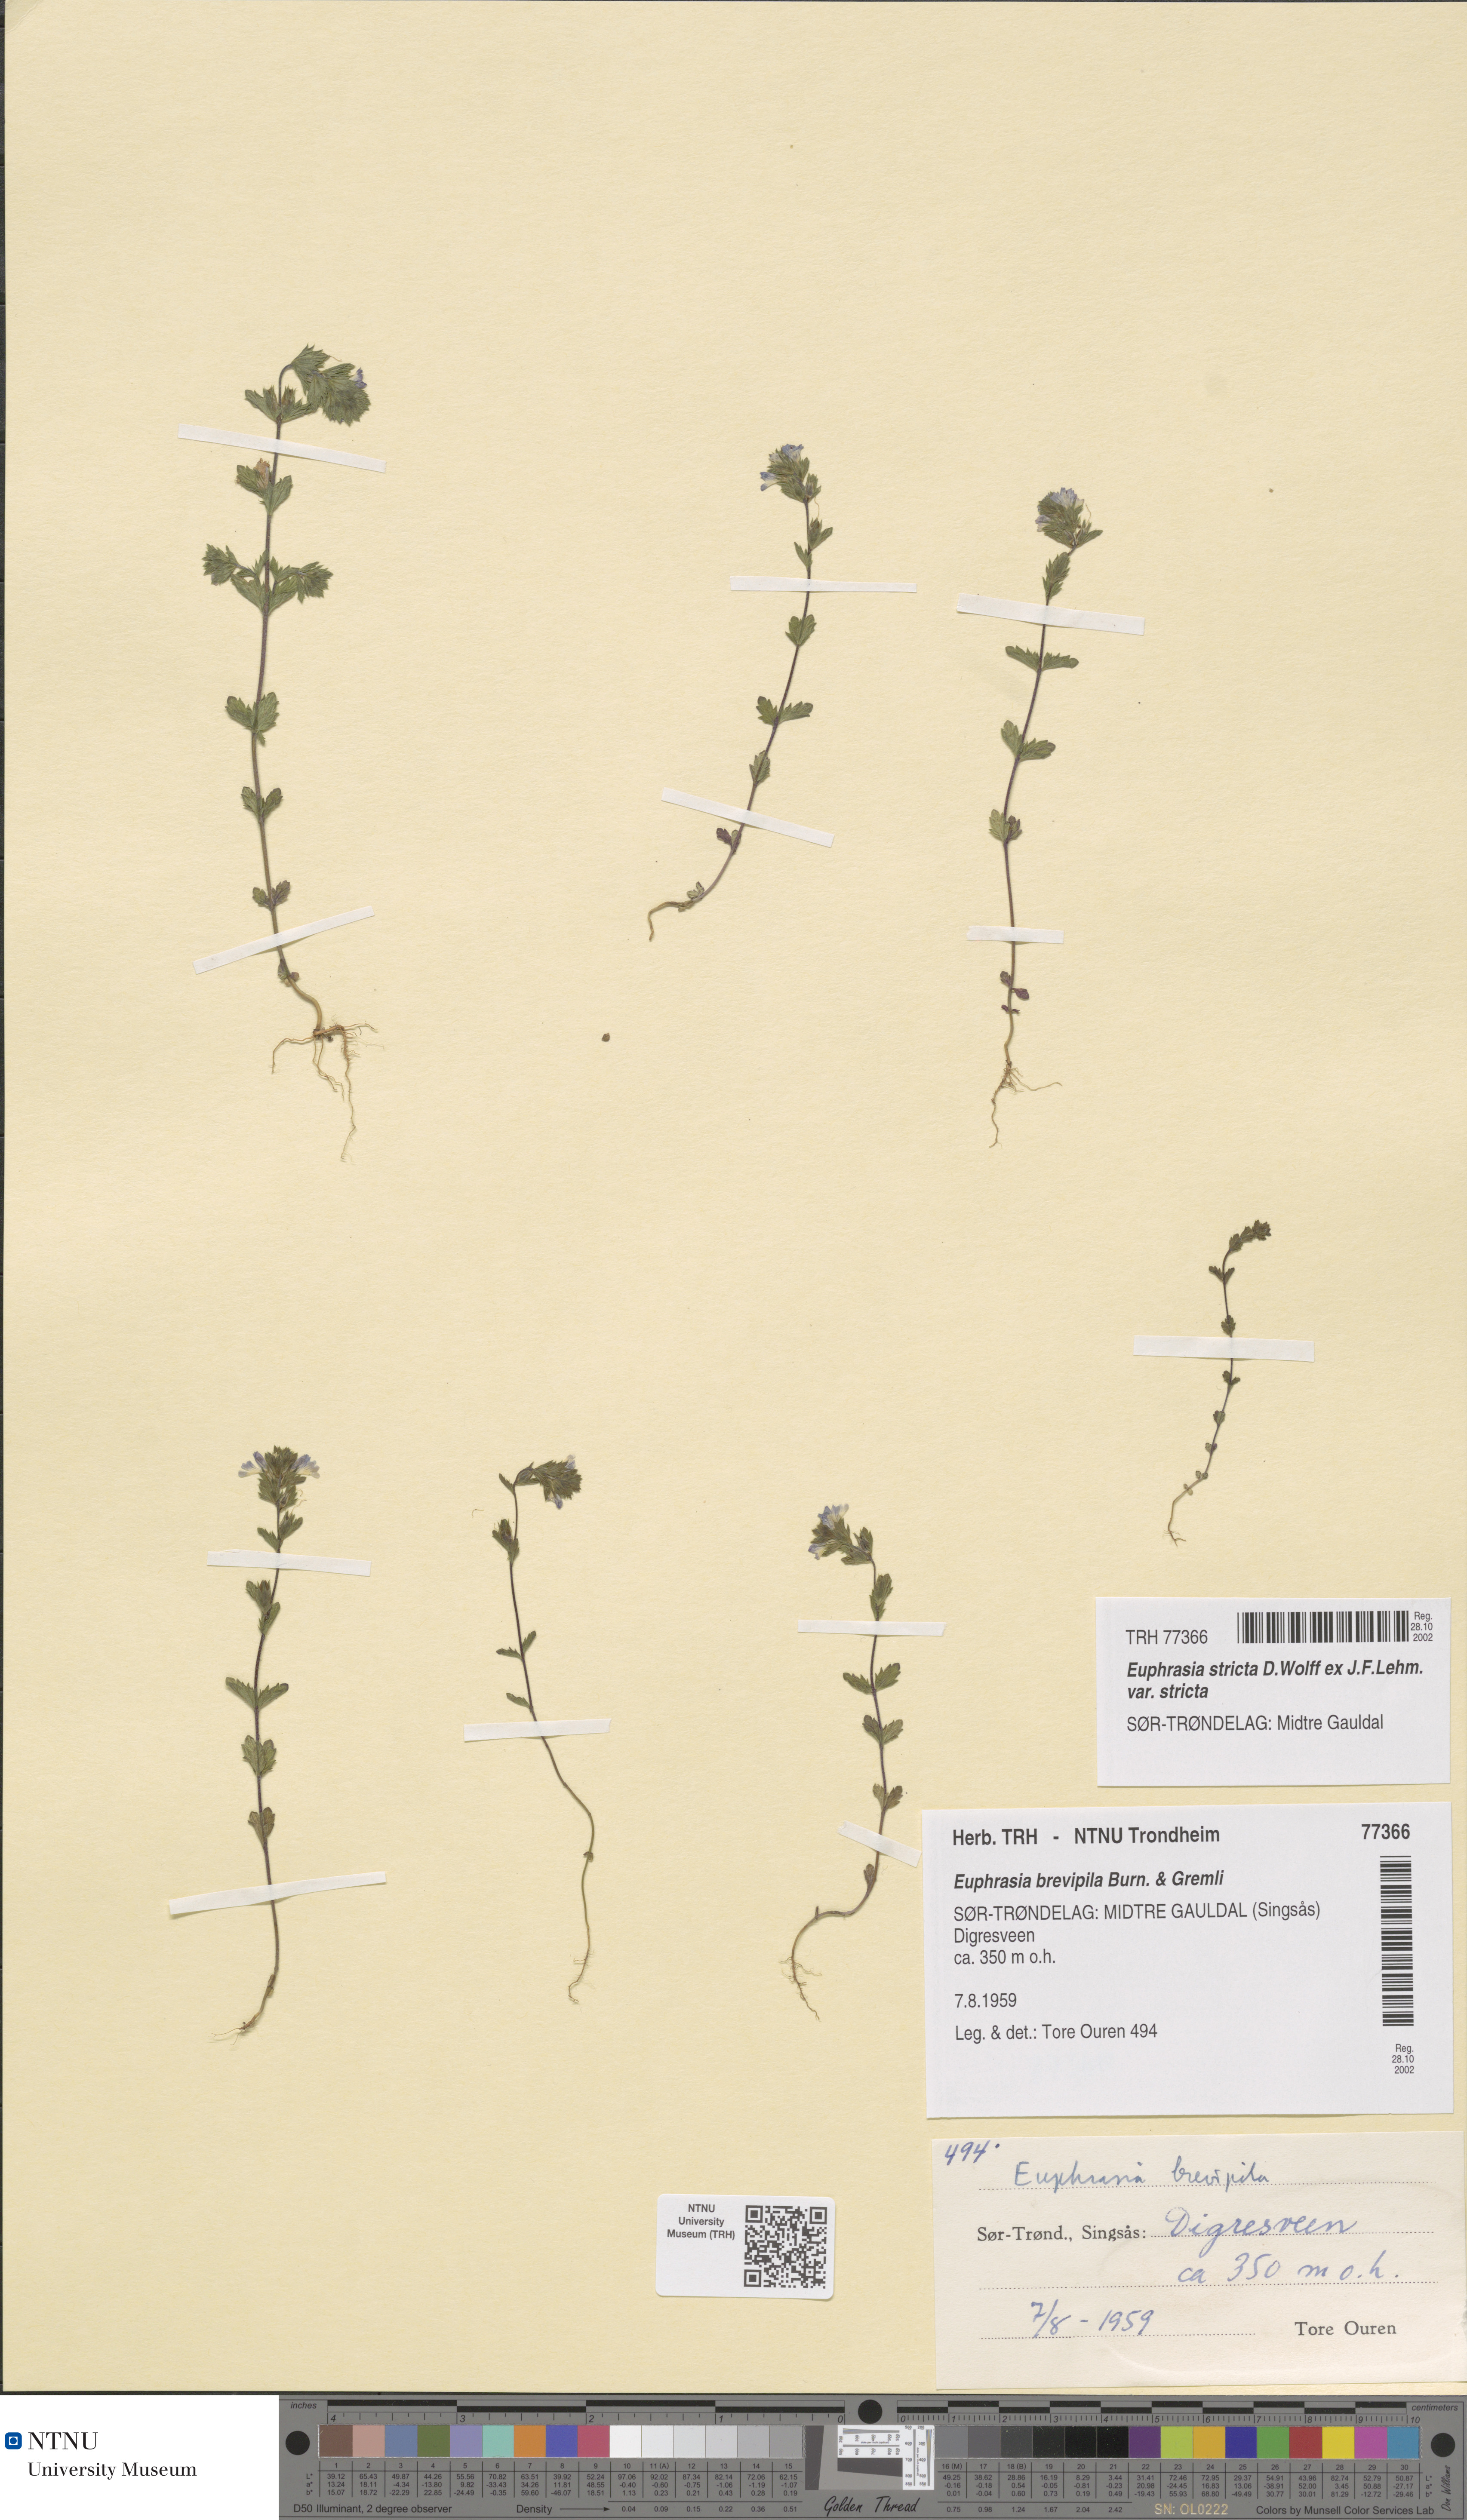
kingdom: Plantae
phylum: Tracheophyta
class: Magnoliopsida
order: Lamiales
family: Orobanchaceae
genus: Euphrasia
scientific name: Euphrasia vernalis
